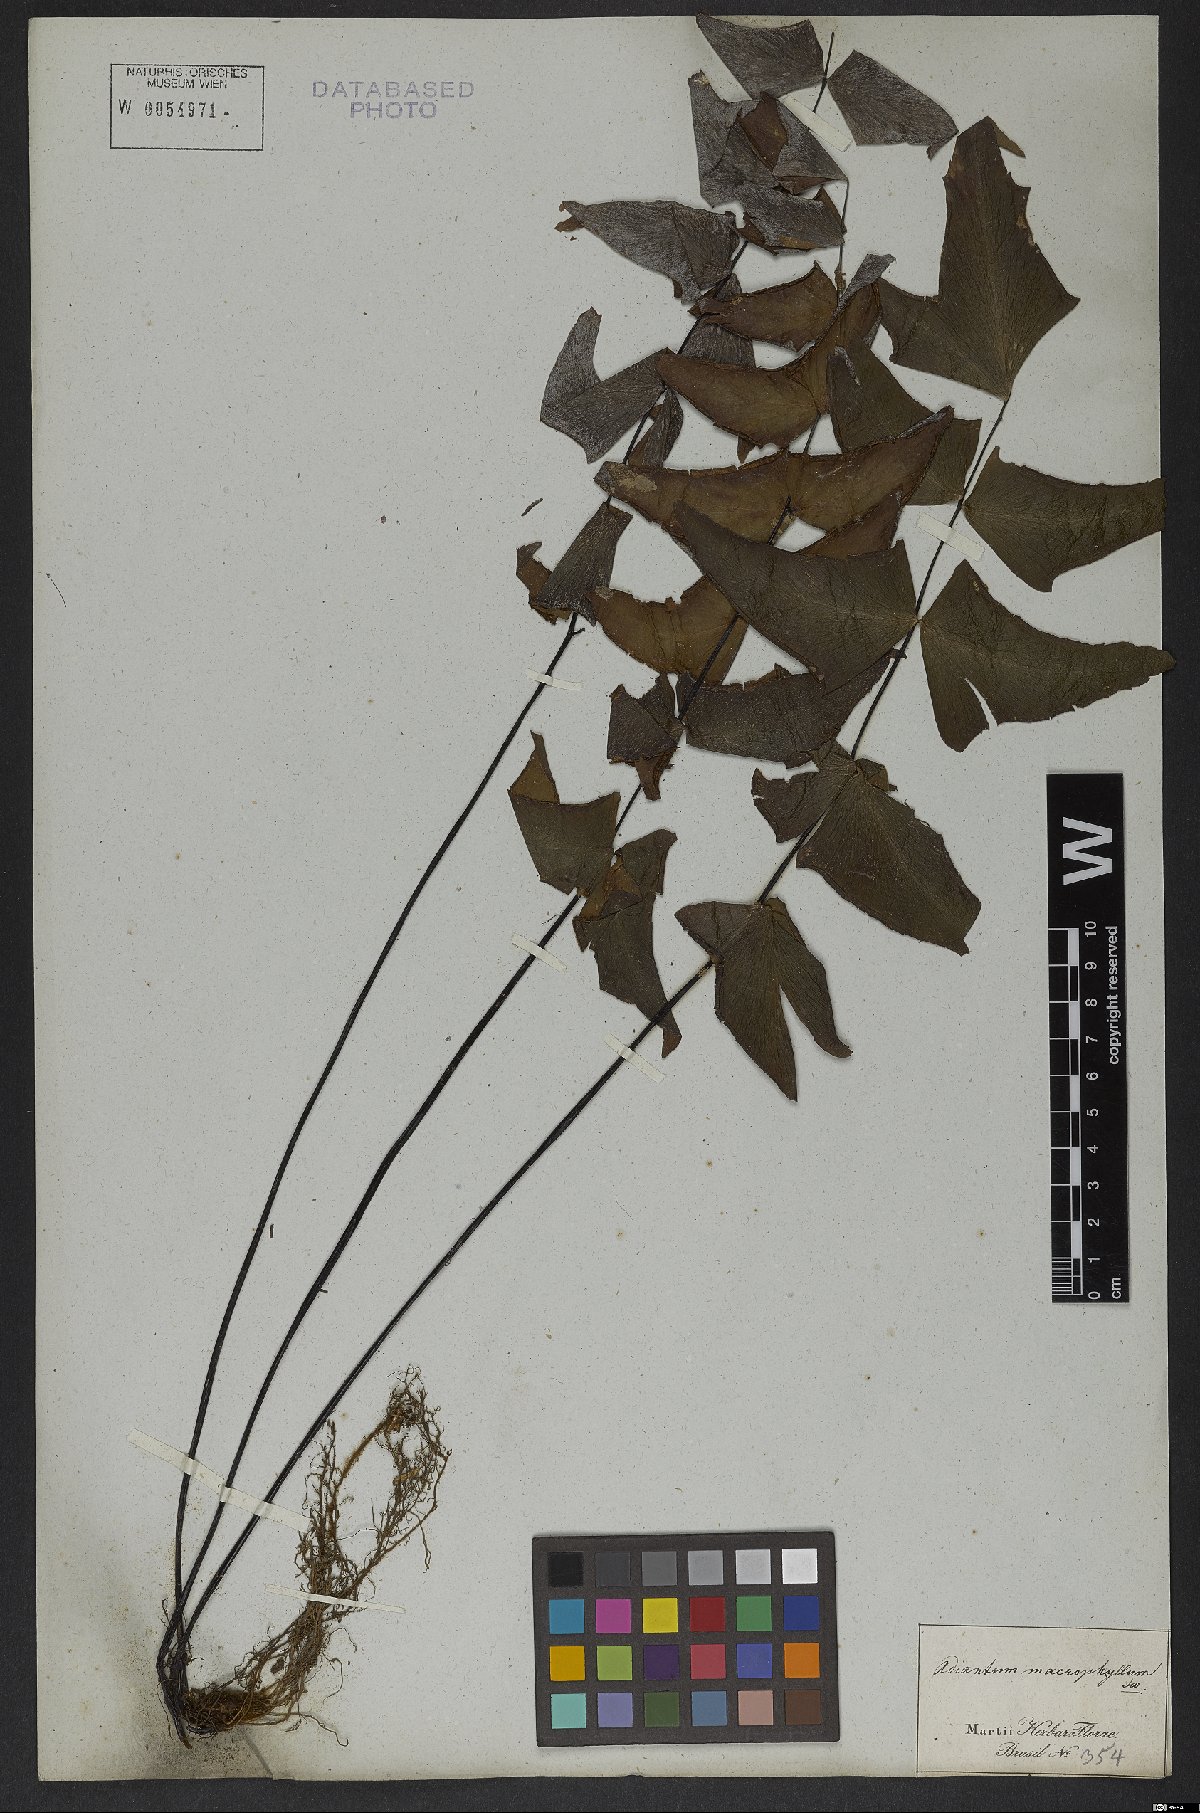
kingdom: Plantae
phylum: Tracheophyta
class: Polypodiopsida
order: Polypodiales
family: Pteridaceae
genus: Adiantum
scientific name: Adiantum macrophyllum
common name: Largeleaf maidenhair
